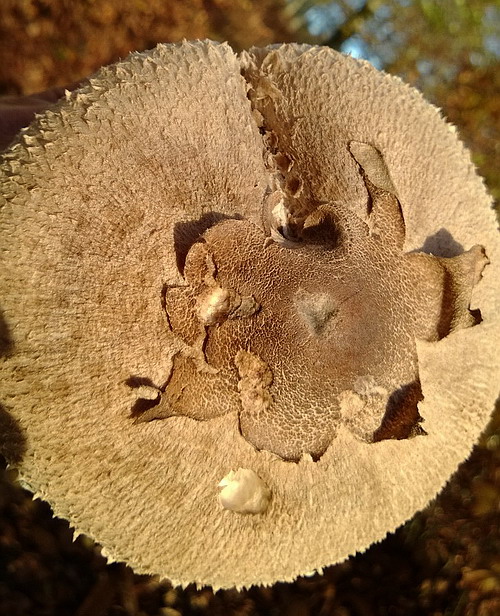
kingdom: Fungi
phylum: Basidiomycota
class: Agaricomycetes
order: Agaricales
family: Agaricaceae
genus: Macrolepiota
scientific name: Macrolepiota fuliginosa
